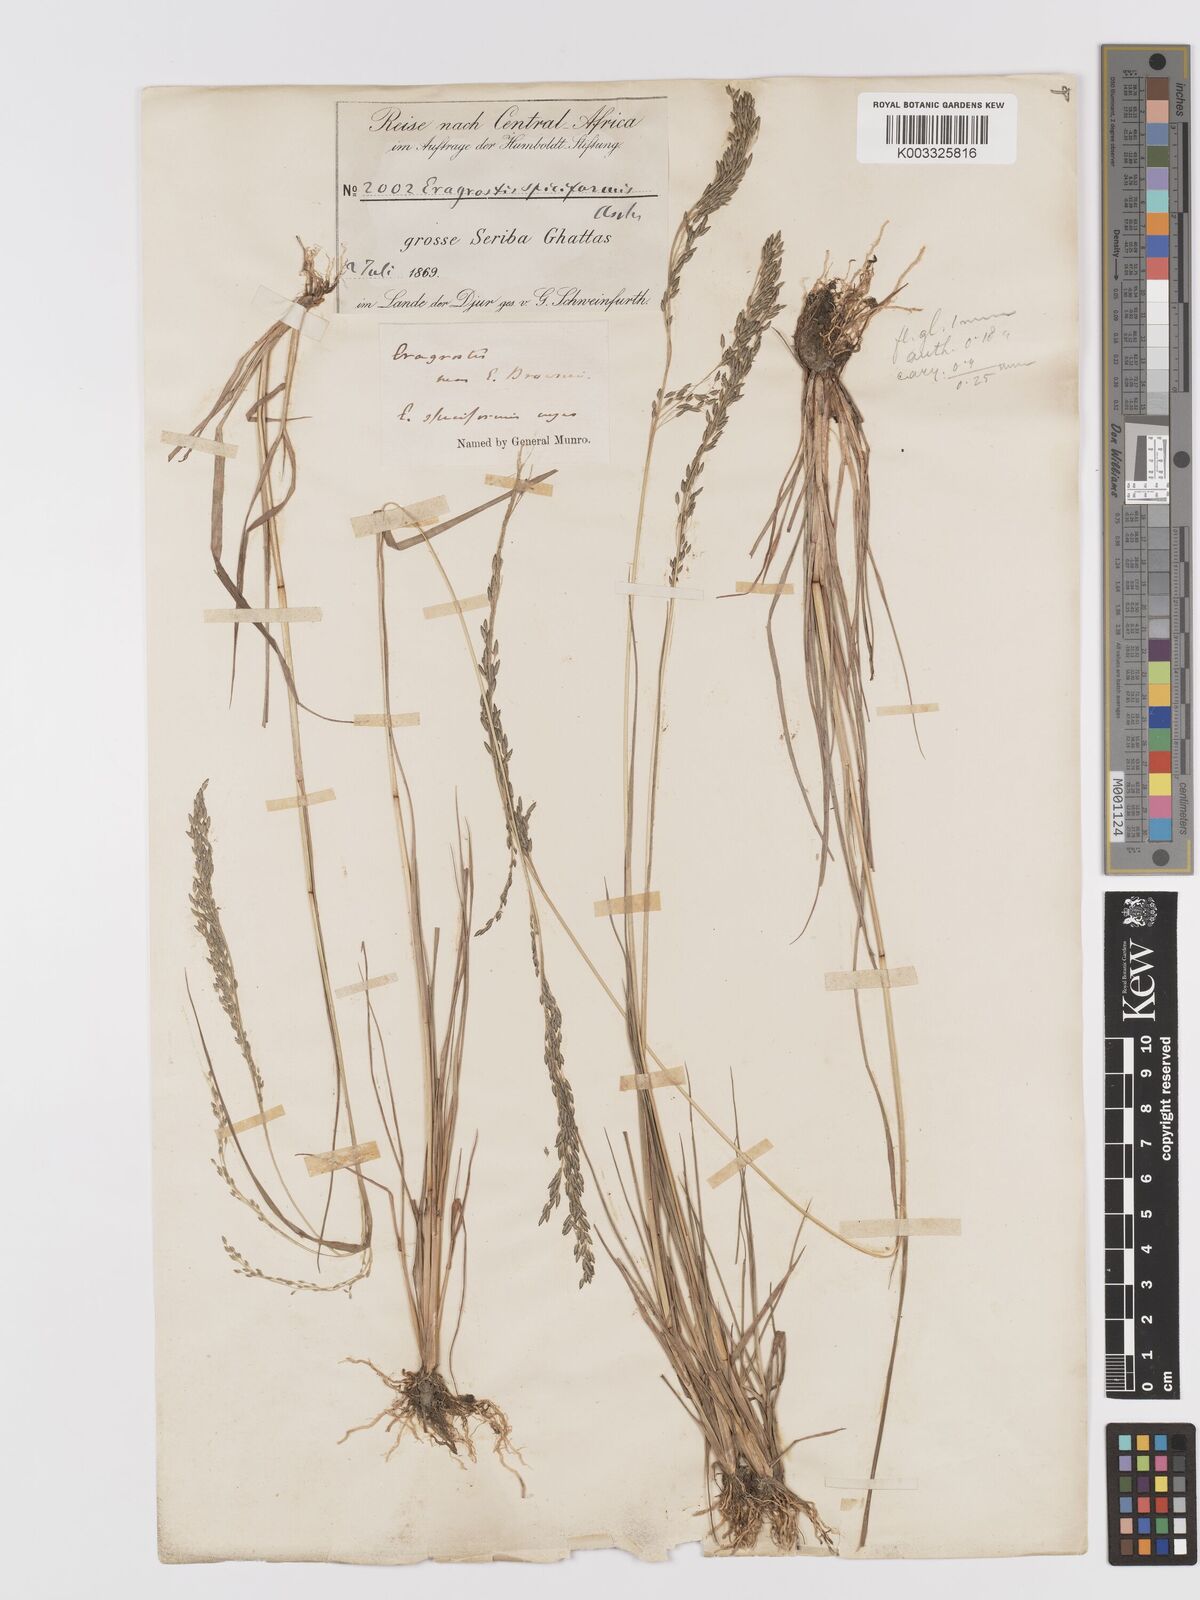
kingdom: Plantae
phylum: Tracheophyta
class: Liliopsida
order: Poales
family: Poaceae
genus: Eragrostis
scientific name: Eragrostis gangetica
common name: Slimflower lovegrass
